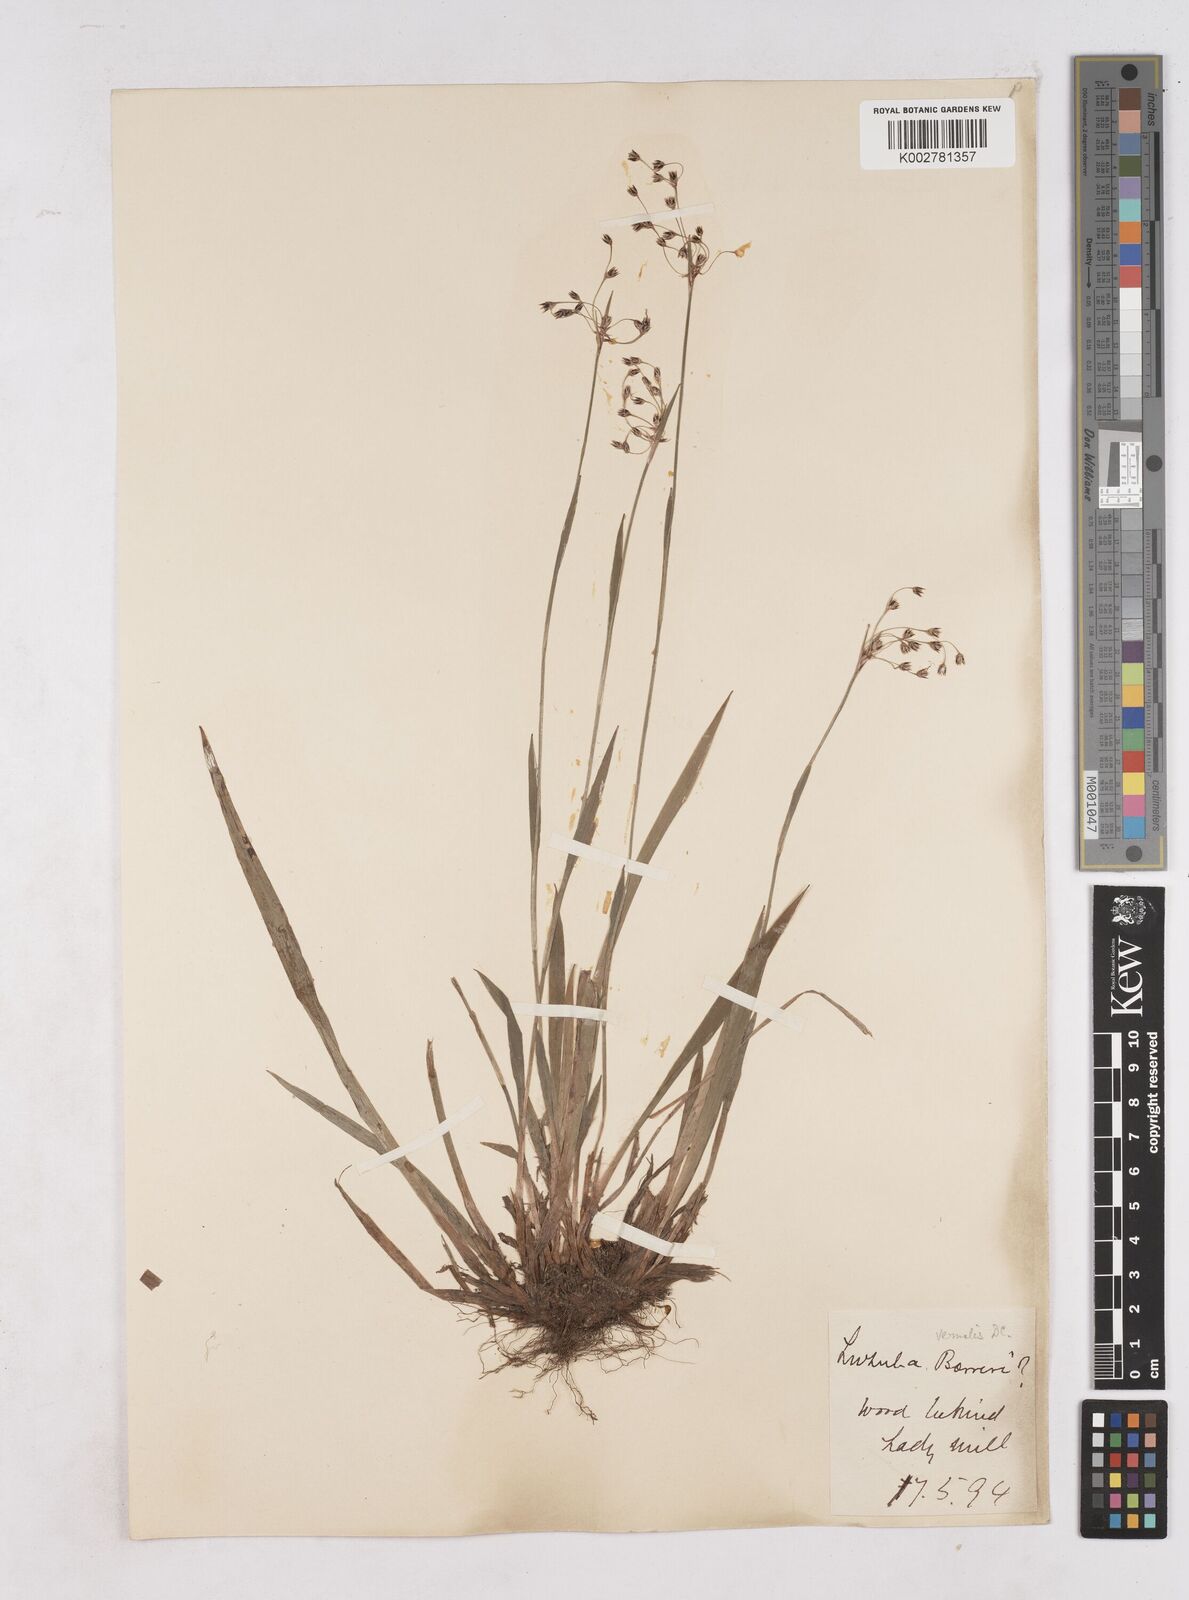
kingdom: Plantae
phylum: Tracheophyta
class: Liliopsida
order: Poales
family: Juncaceae
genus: Luzula
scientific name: Luzula pilosa
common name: Hairy wood-rush
